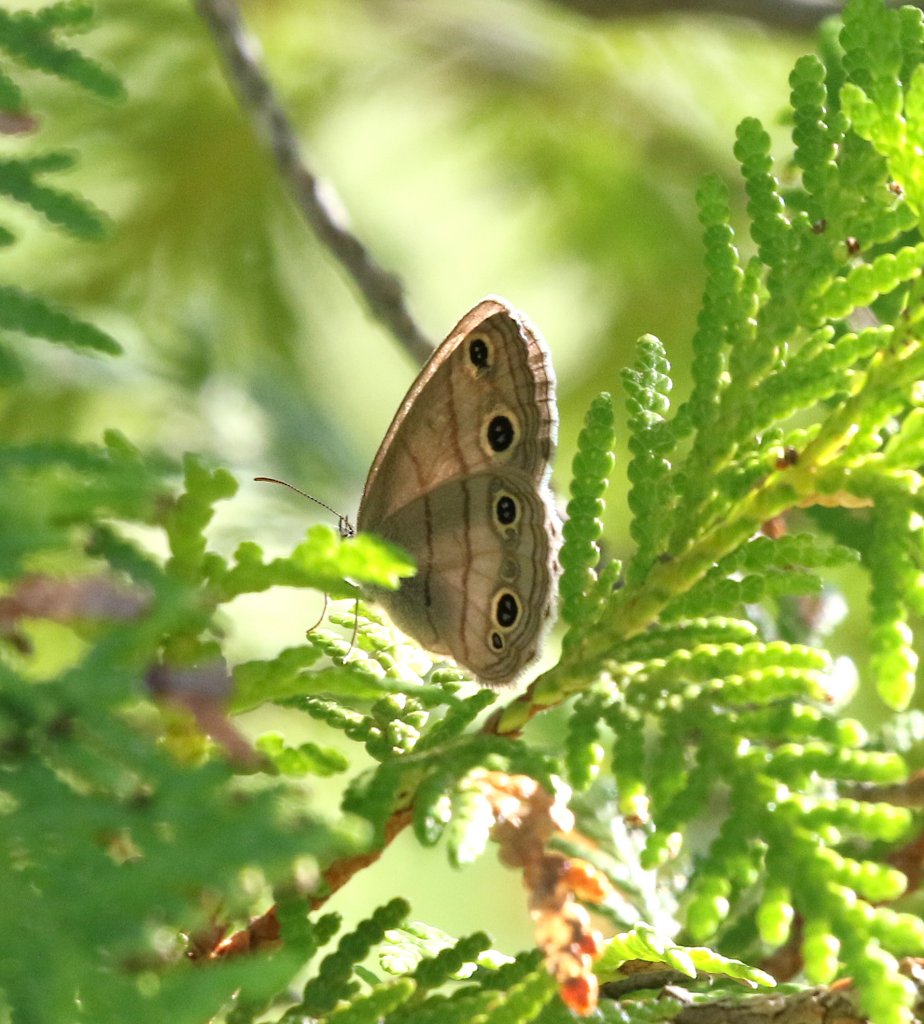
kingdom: Animalia
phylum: Arthropoda
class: Insecta
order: Lepidoptera
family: Nymphalidae
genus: Euptychia
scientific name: Euptychia cymela
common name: Little Wood Satyr
